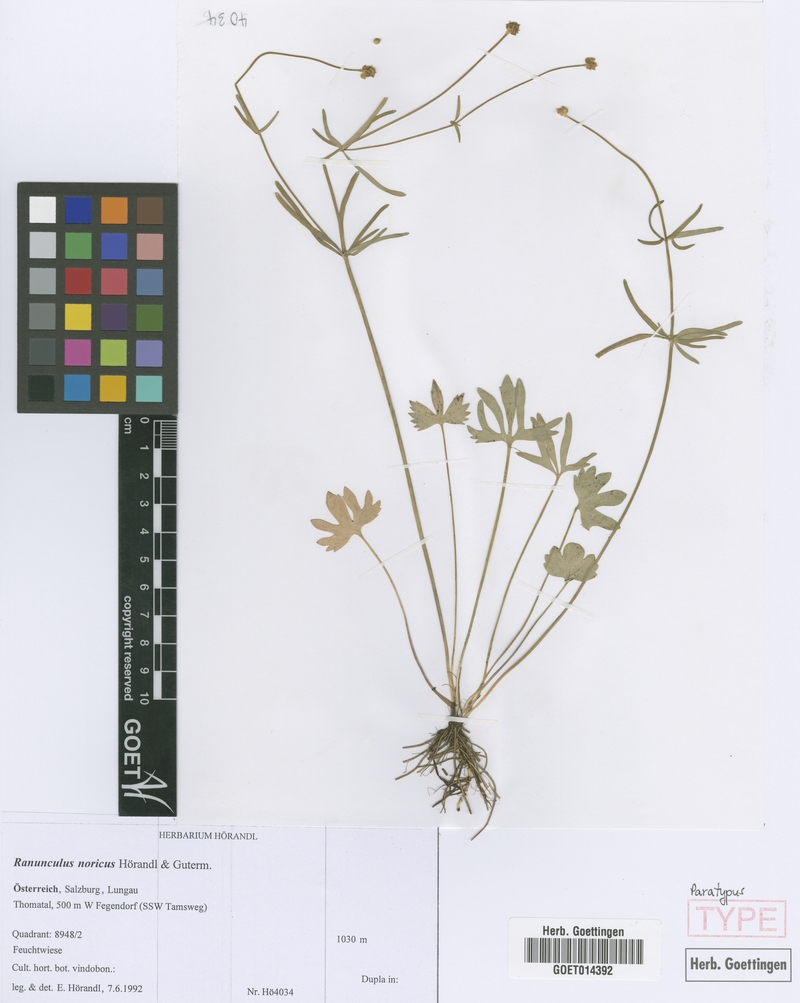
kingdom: Plantae
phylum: Tracheophyta
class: Magnoliopsida
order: Ranunculales
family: Ranunculaceae
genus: Ranunculus
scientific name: Ranunculus noricus
